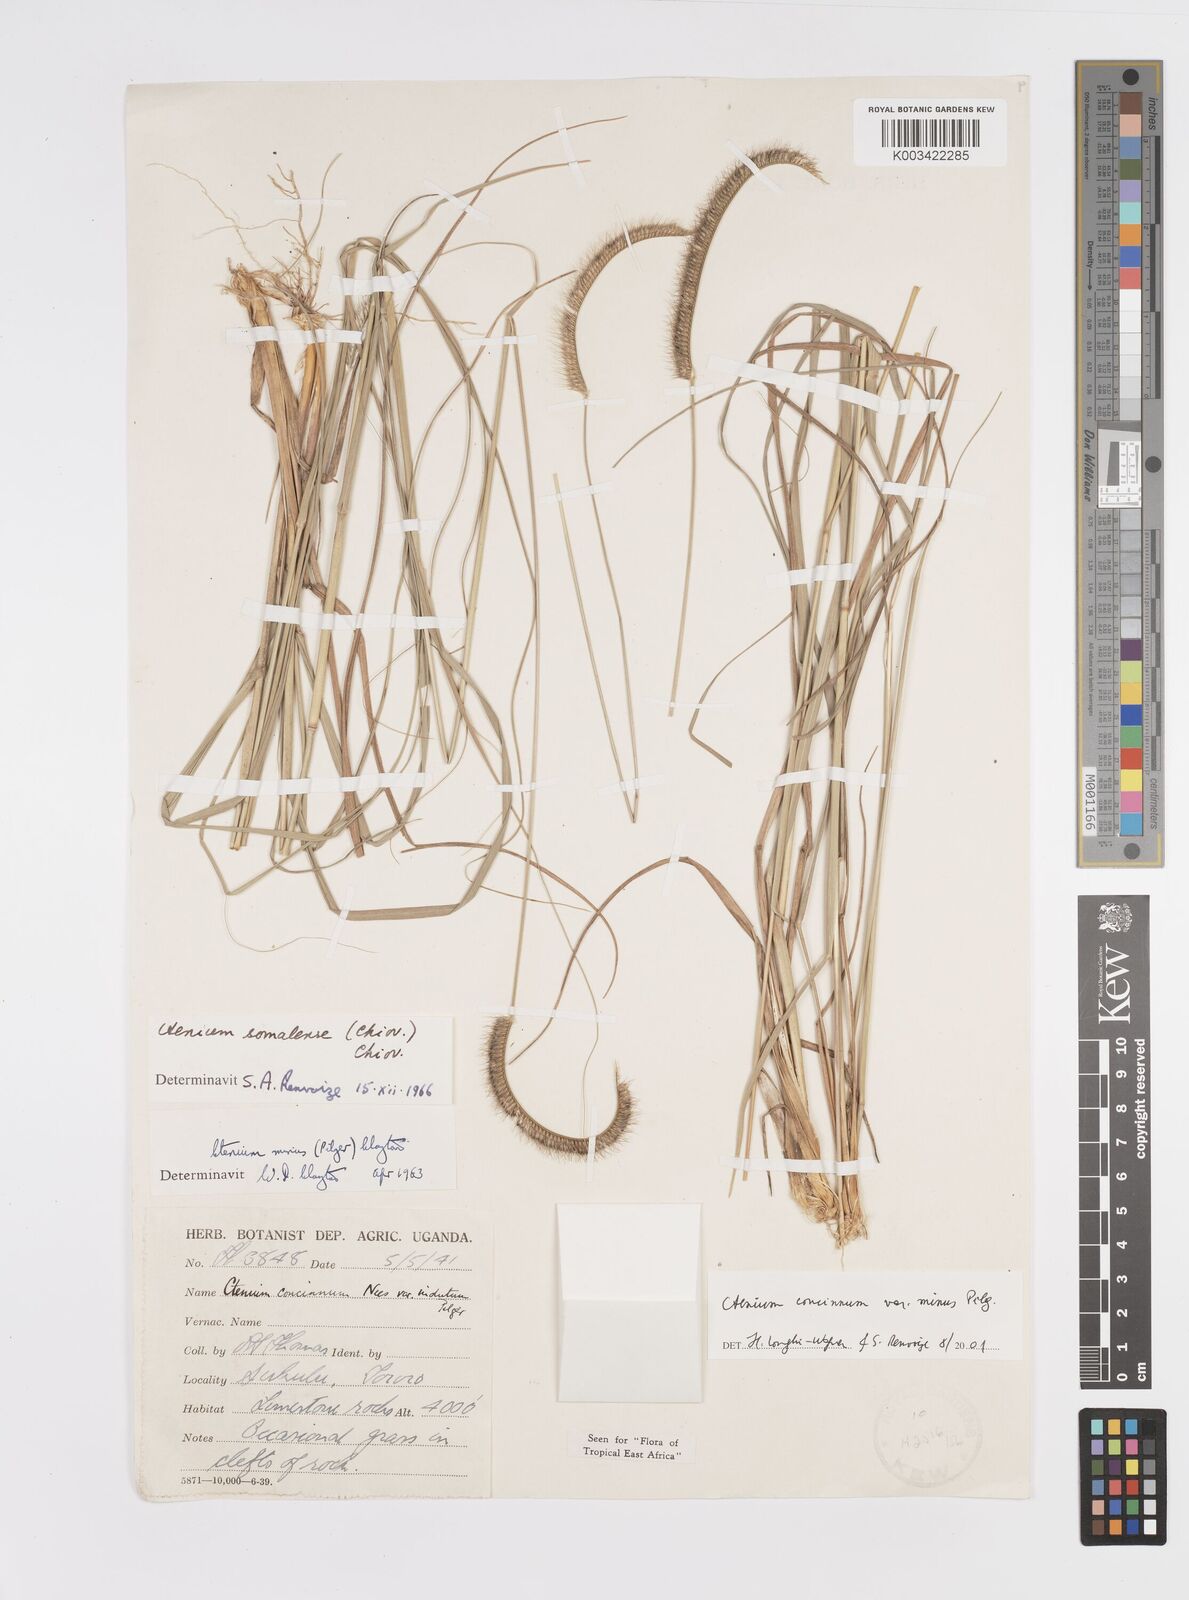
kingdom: Plantae
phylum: Tracheophyta
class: Liliopsida
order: Poales
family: Poaceae
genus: Ctenium
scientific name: Ctenium concinnum
